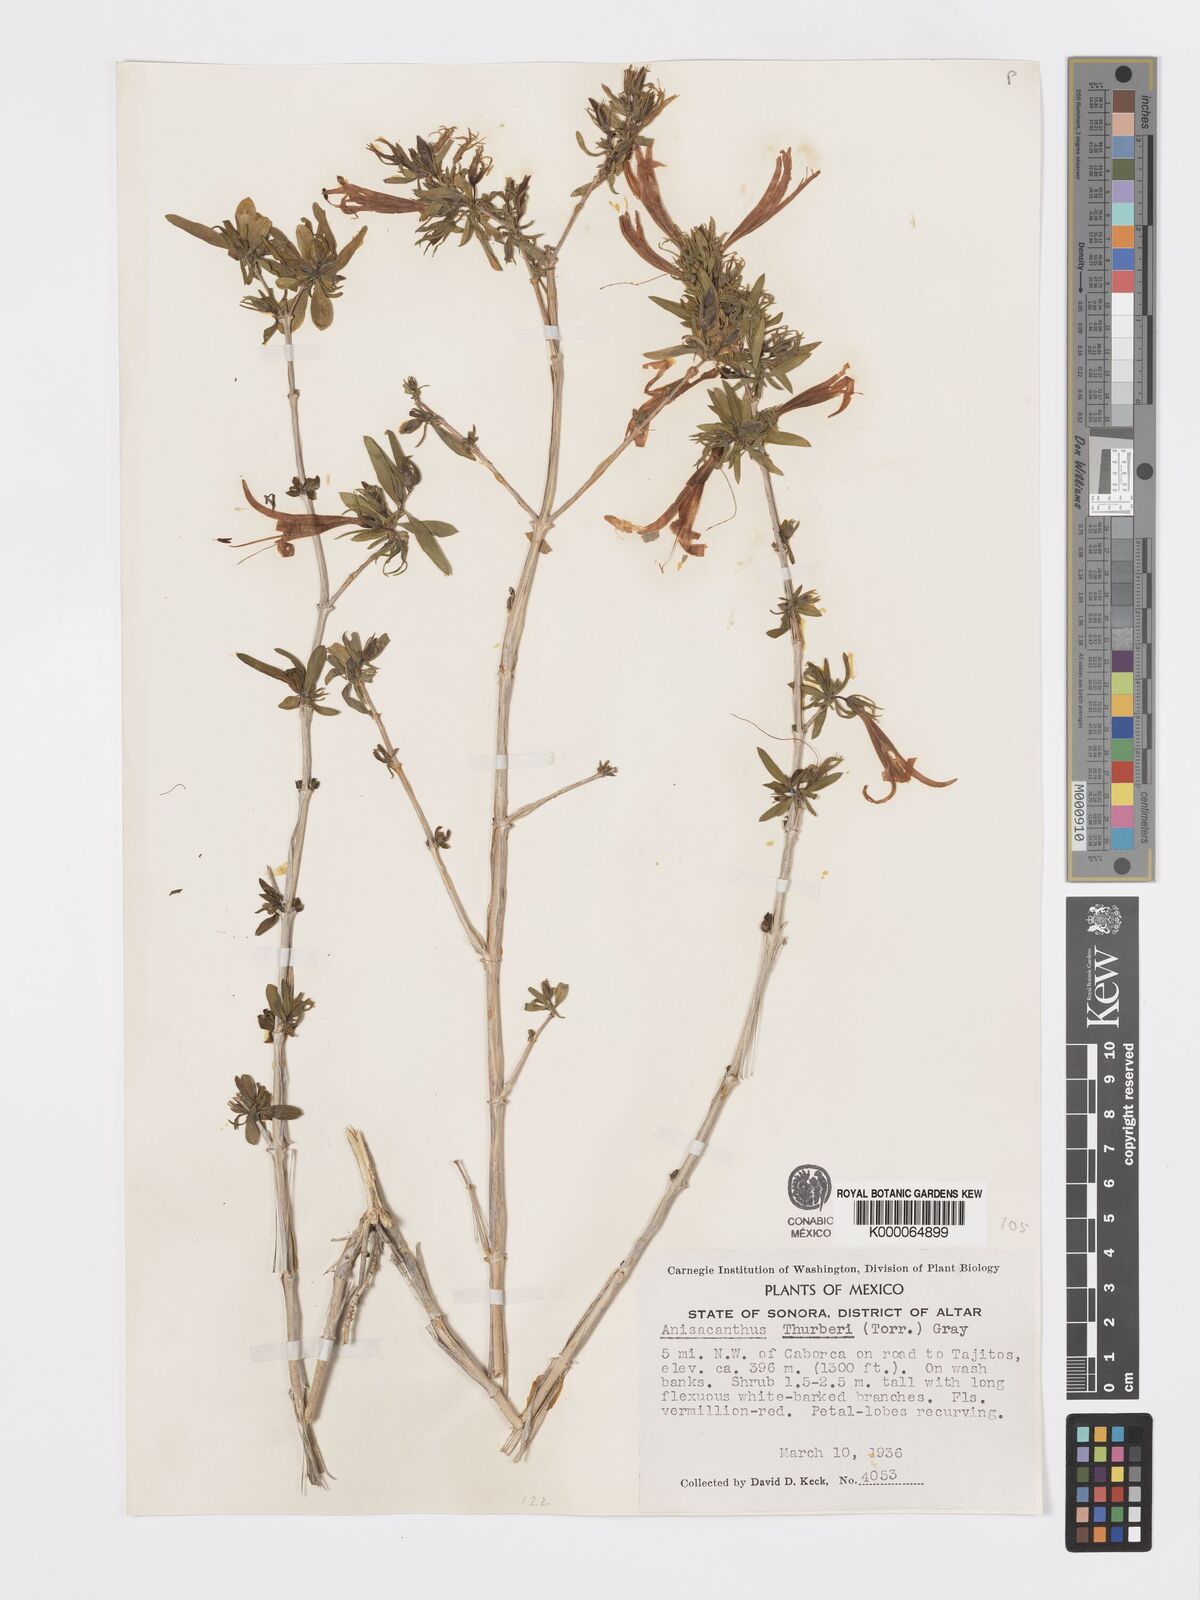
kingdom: Plantae
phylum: Tracheophyta
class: Magnoliopsida
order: Lamiales
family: Acanthaceae
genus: Anisacanthus
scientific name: Anisacanthus thurberi
